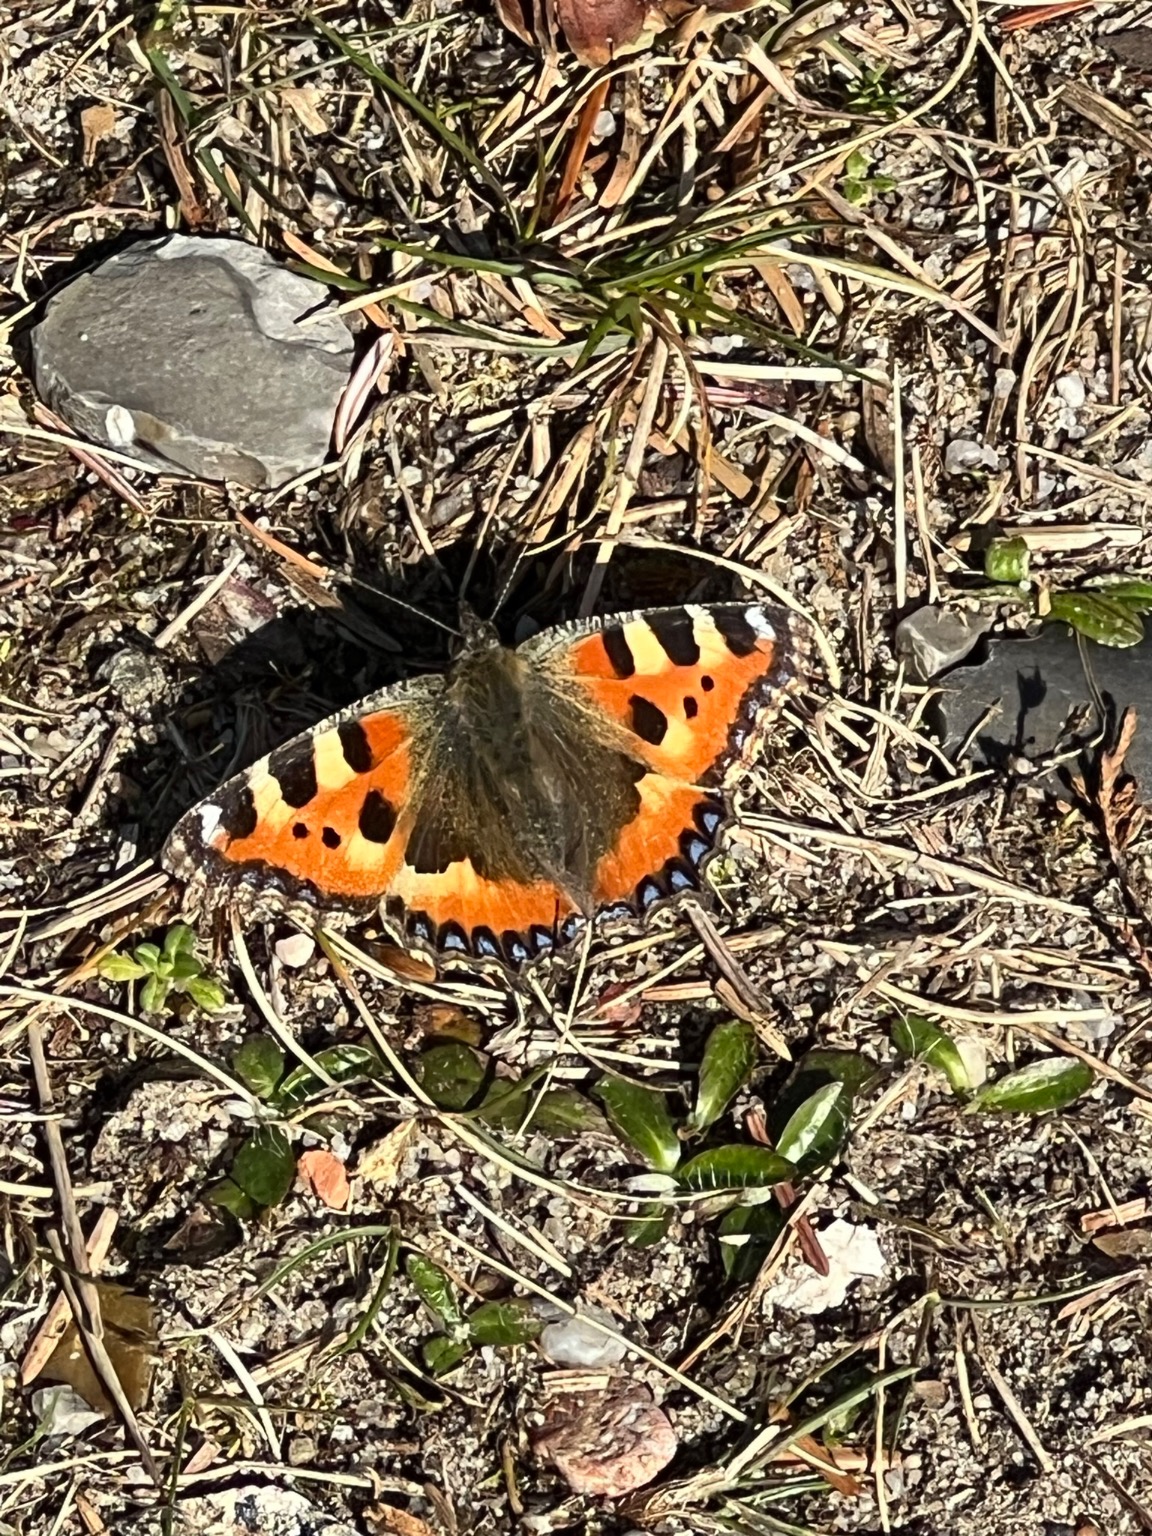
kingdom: Animalia
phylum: Arthropoda
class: Insecta
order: Lepidoptera
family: Nymphalidae
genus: Aglais
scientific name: Aglais urticae
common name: Nældens takvinge
